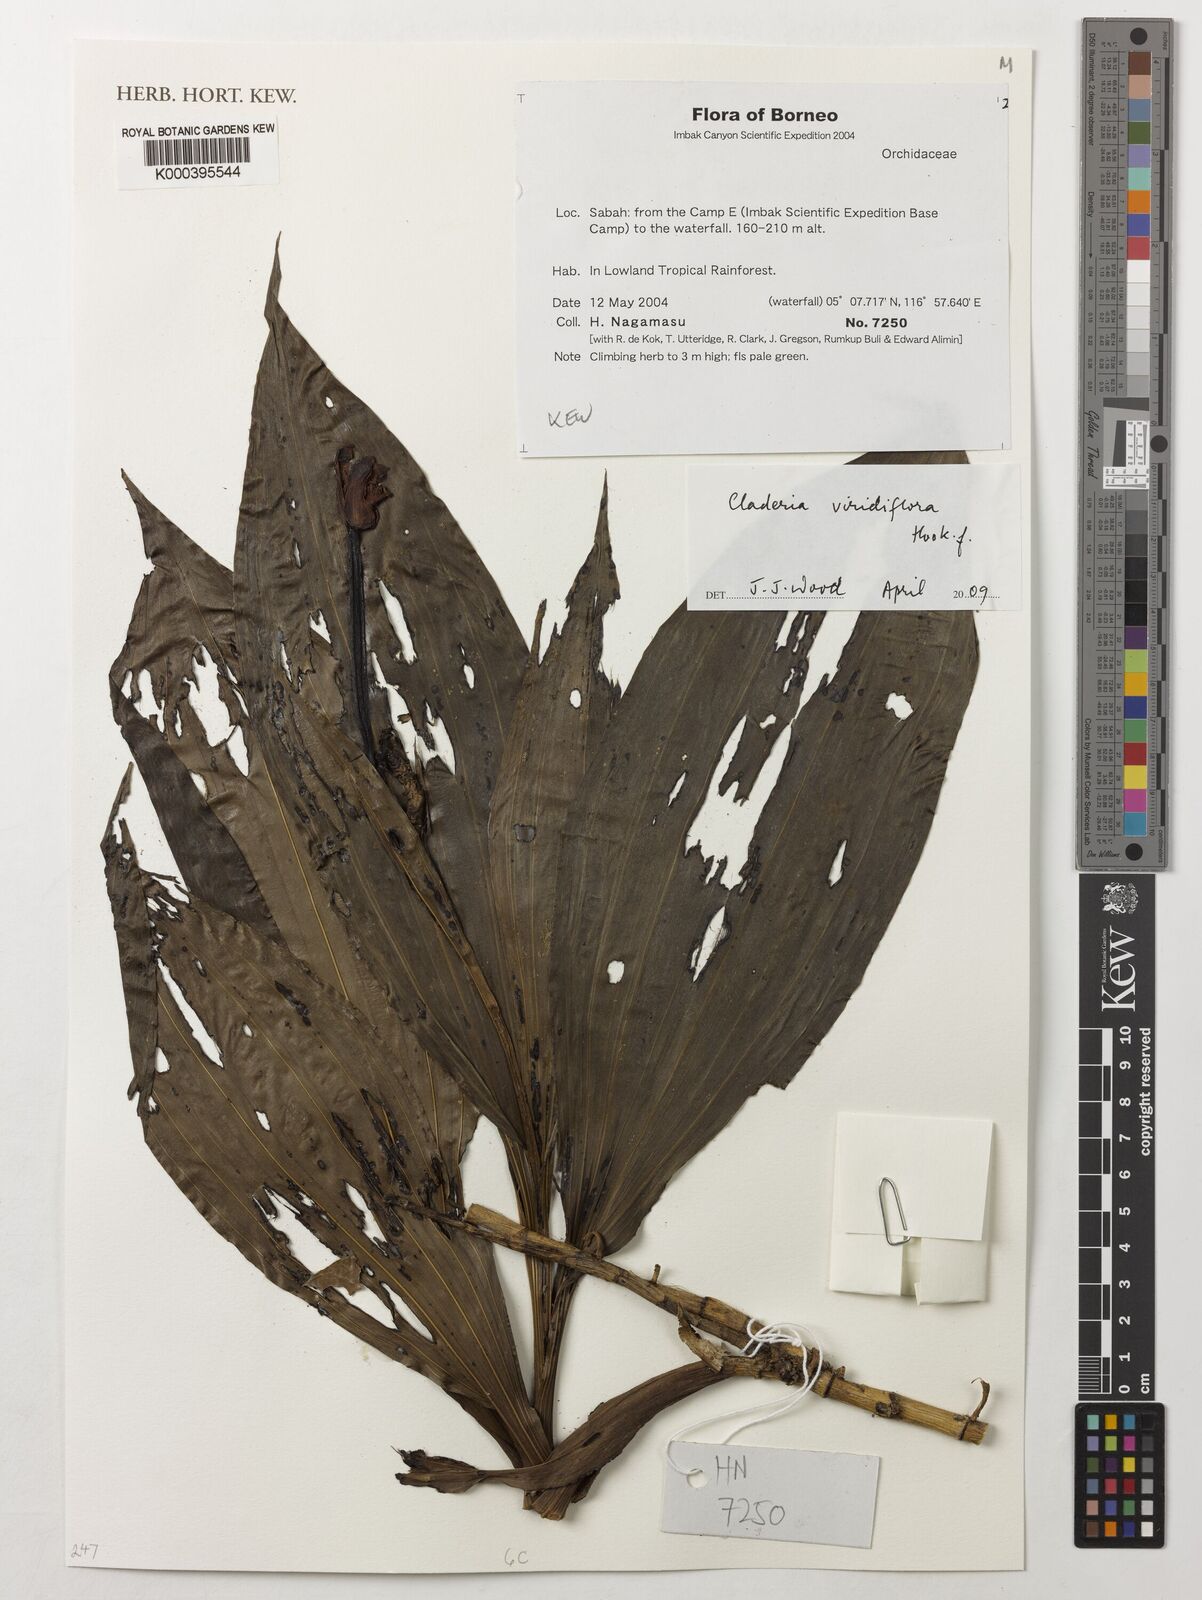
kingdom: Plantae
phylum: Tracheophyta
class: Liliopsida
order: Asparagales
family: Orchidaceae
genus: Claderia
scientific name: Claderia viridiflora
